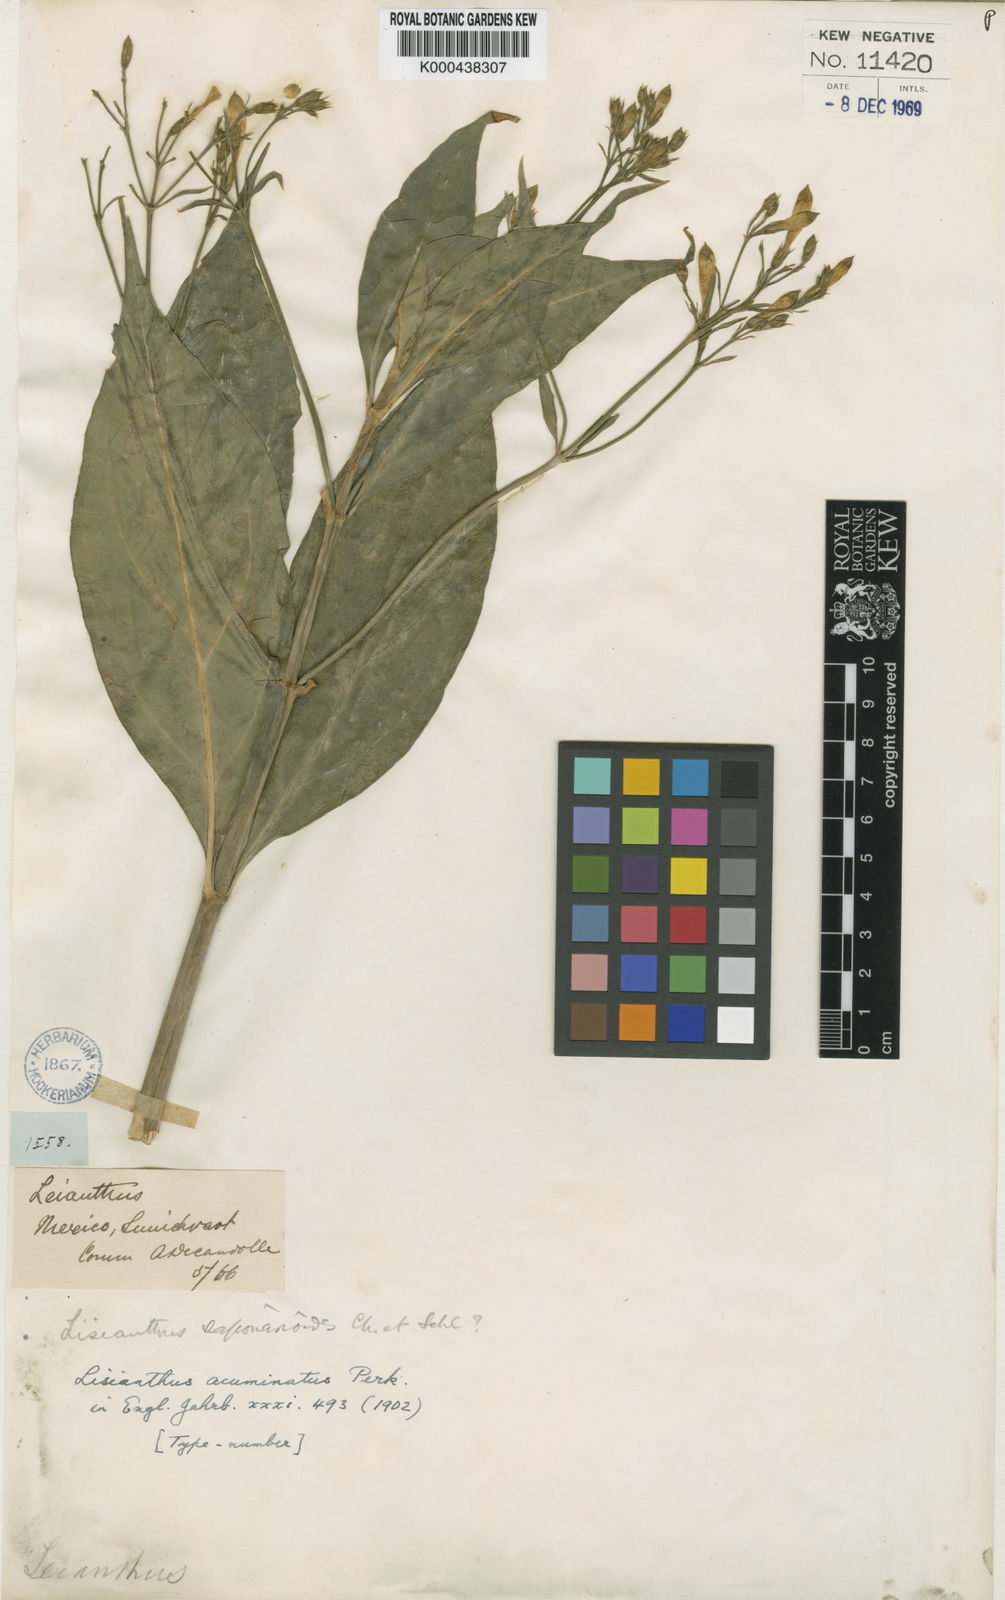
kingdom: Plantae
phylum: Tracheophyta
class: Magnoliopsida
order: Gentianales
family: Gentianaceae
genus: Lisianthius
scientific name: Lisianthius perkinsiae
